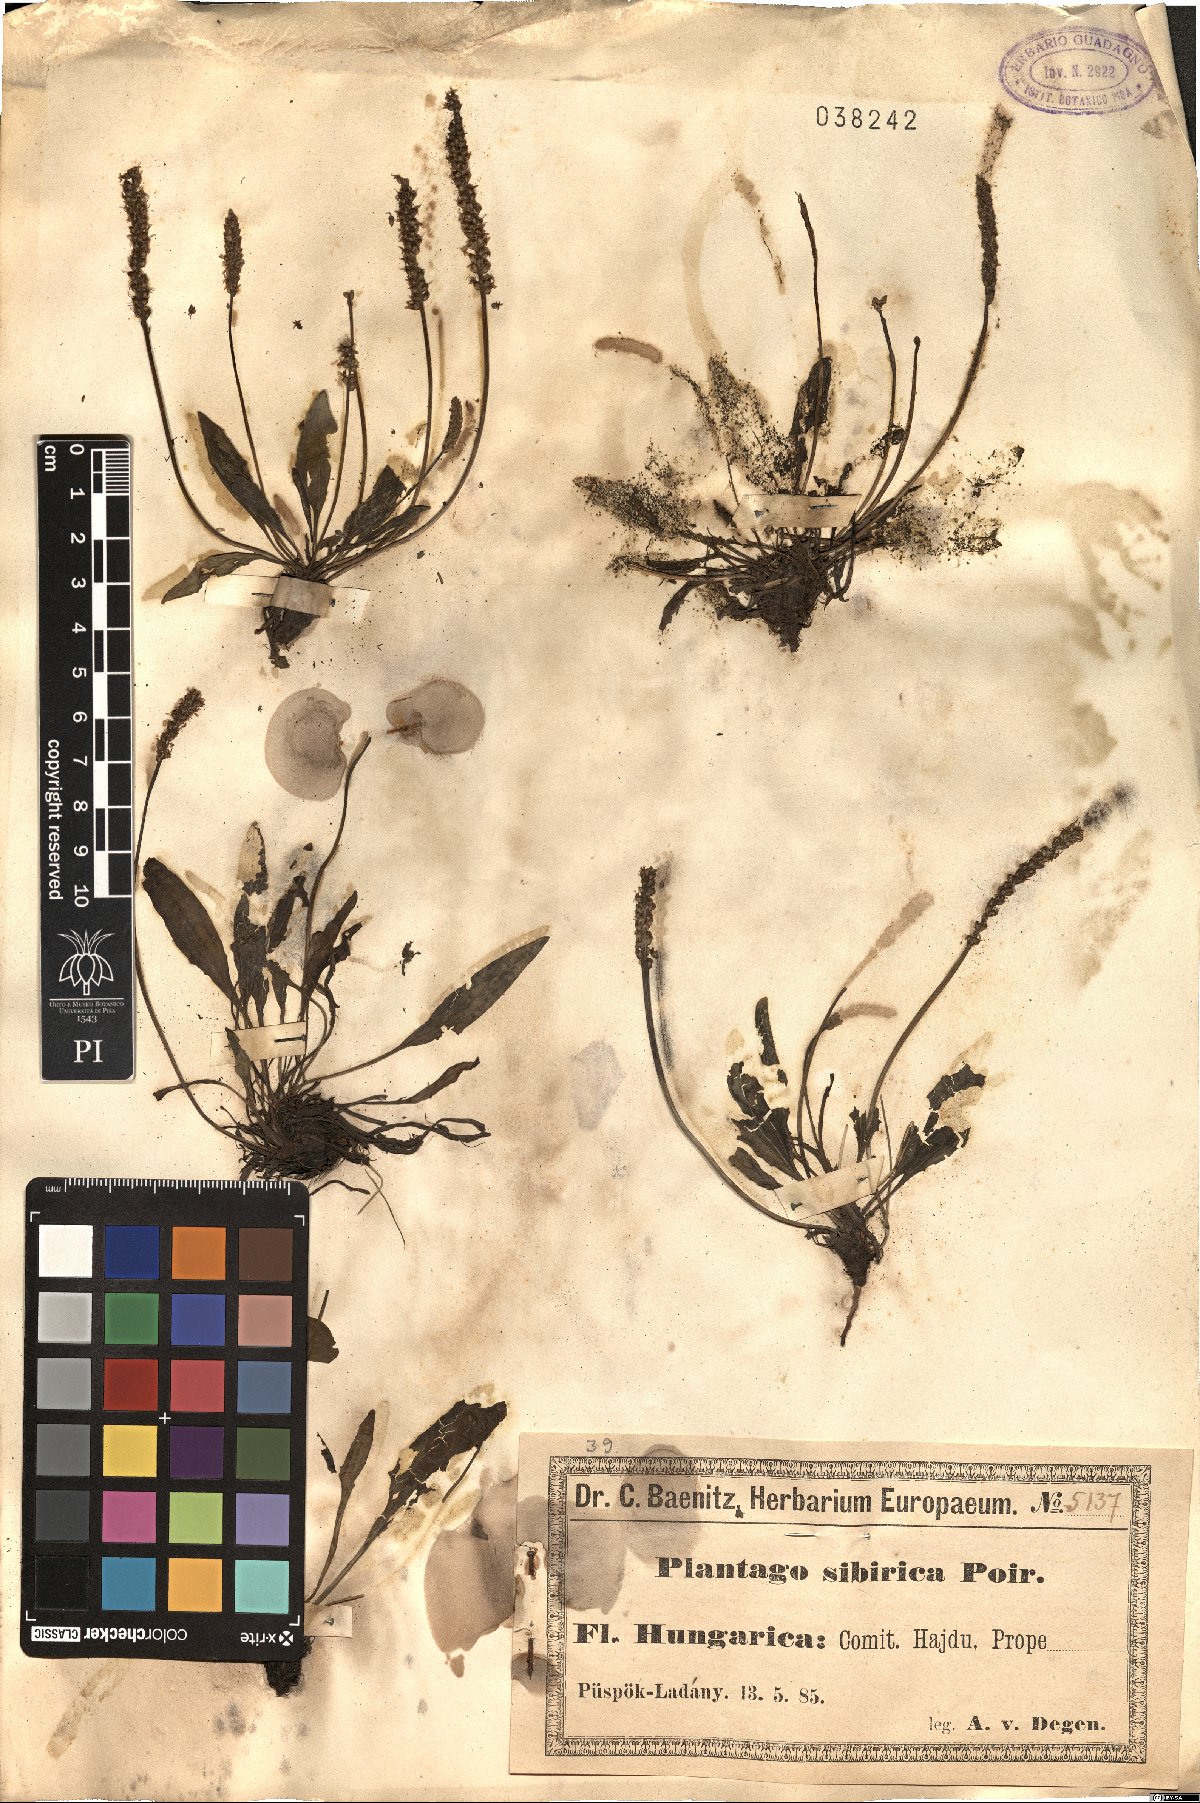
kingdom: Plantae
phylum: Tracheophyta
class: Magnoliopsida
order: Lamiales
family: Plantaginaceae
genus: Plantago
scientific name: Plantago depressa
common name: Depressed plantain
